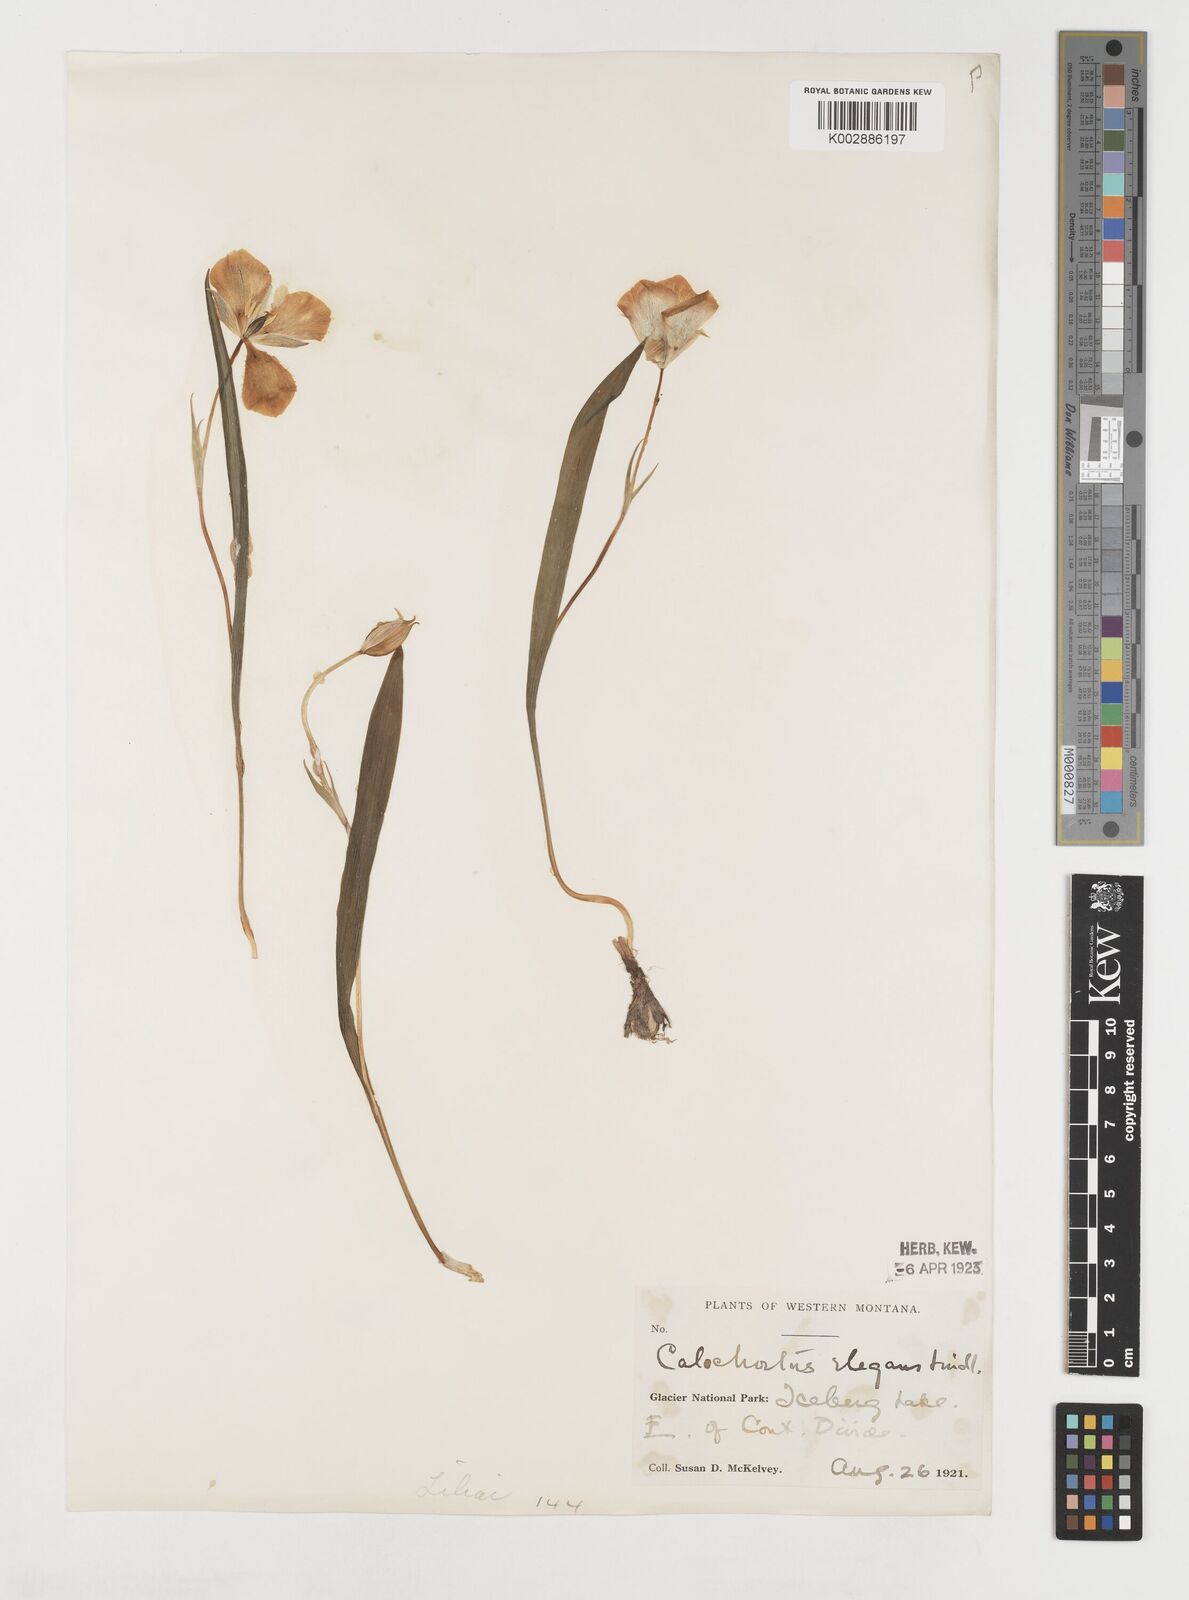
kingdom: Plantae
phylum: Tracheophyta
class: Liliopsida
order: Liliales
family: Liliaceae
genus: Calochortus
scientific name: Calochortus elegans
